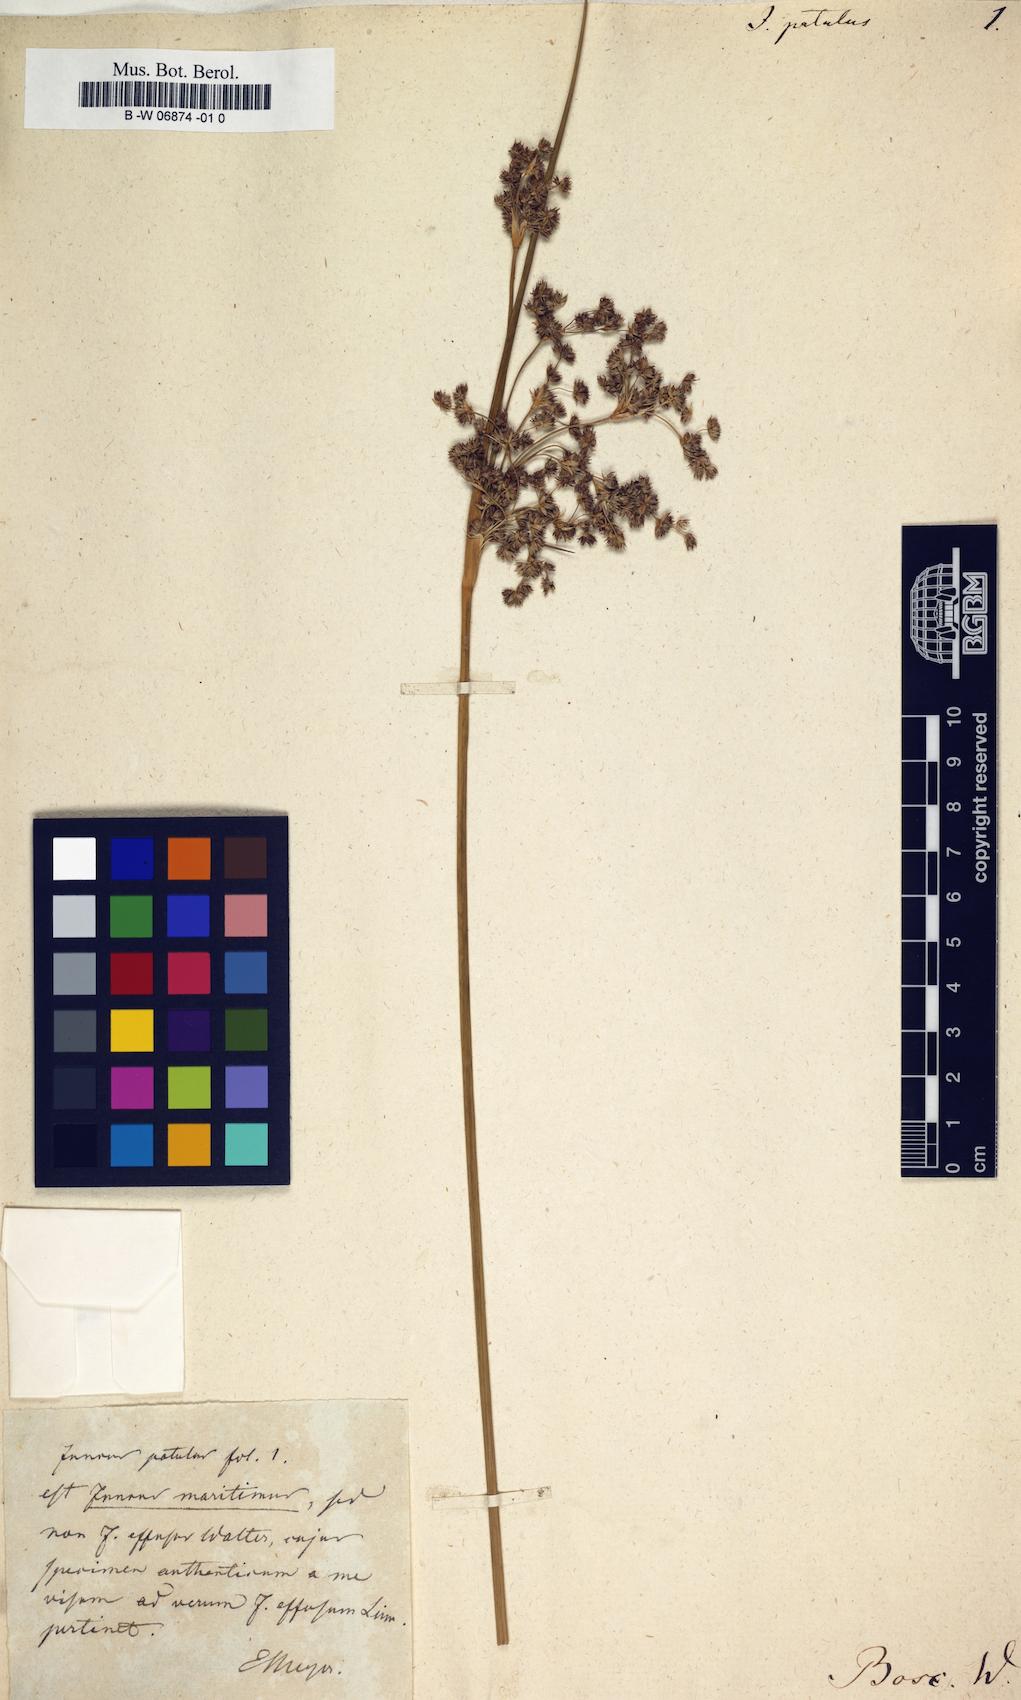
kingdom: Plantae
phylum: Tracheophyta
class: Liliopsida
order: Poales
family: Juncaceae
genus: Juncus
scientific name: Juncus
